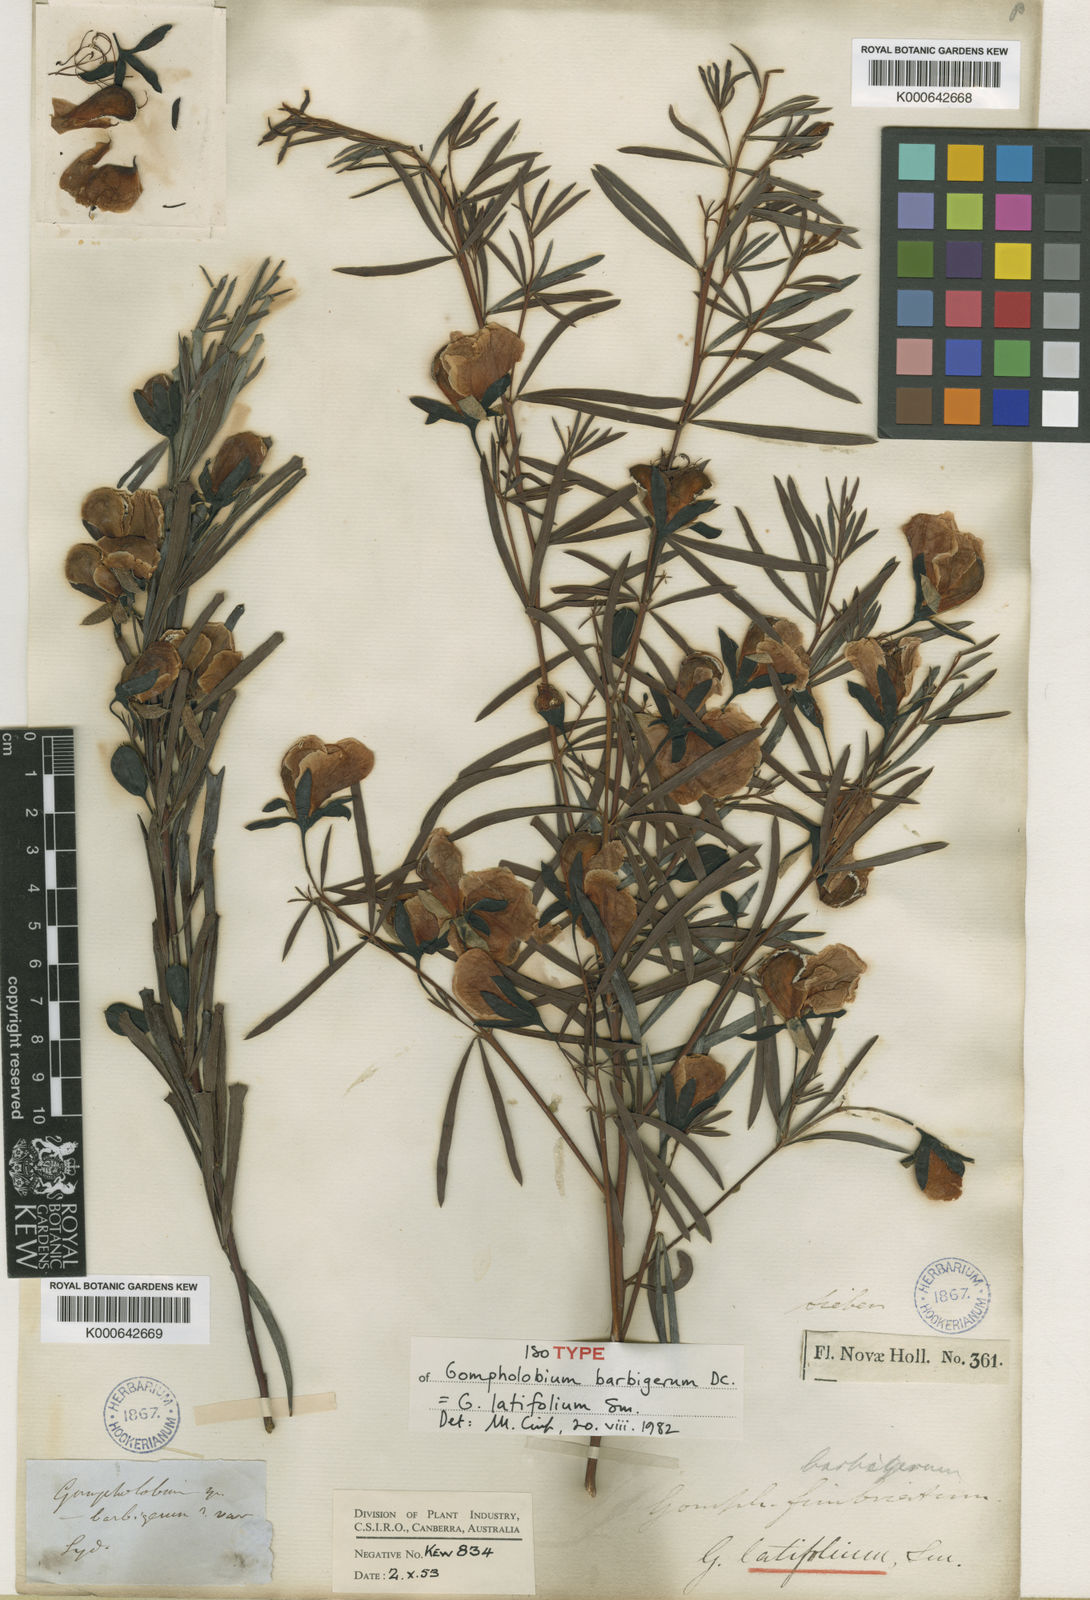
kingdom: Plantae
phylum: Tracheophyta
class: Magnoliopsida
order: Fabales
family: Fabaceae
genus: Gompholobium
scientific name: Gompholobium latifolium
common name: Broadleaf wedge-pea
